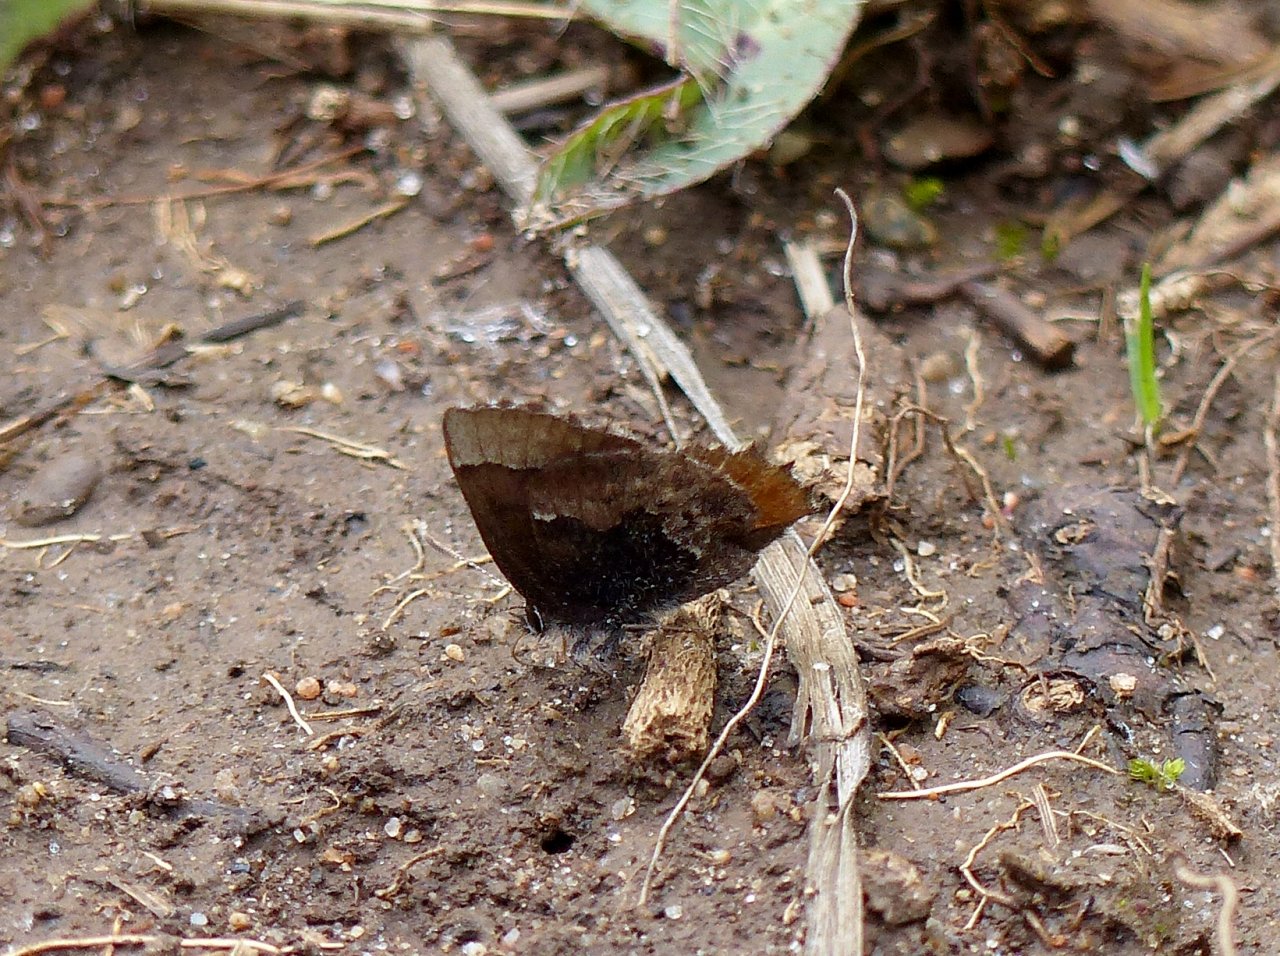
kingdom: Animalia
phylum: Arthropoda
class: Insecta
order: Lepidoptera
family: Lycaenidae
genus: Incisalia
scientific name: Incisalia henrici
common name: Henry's Elfin
